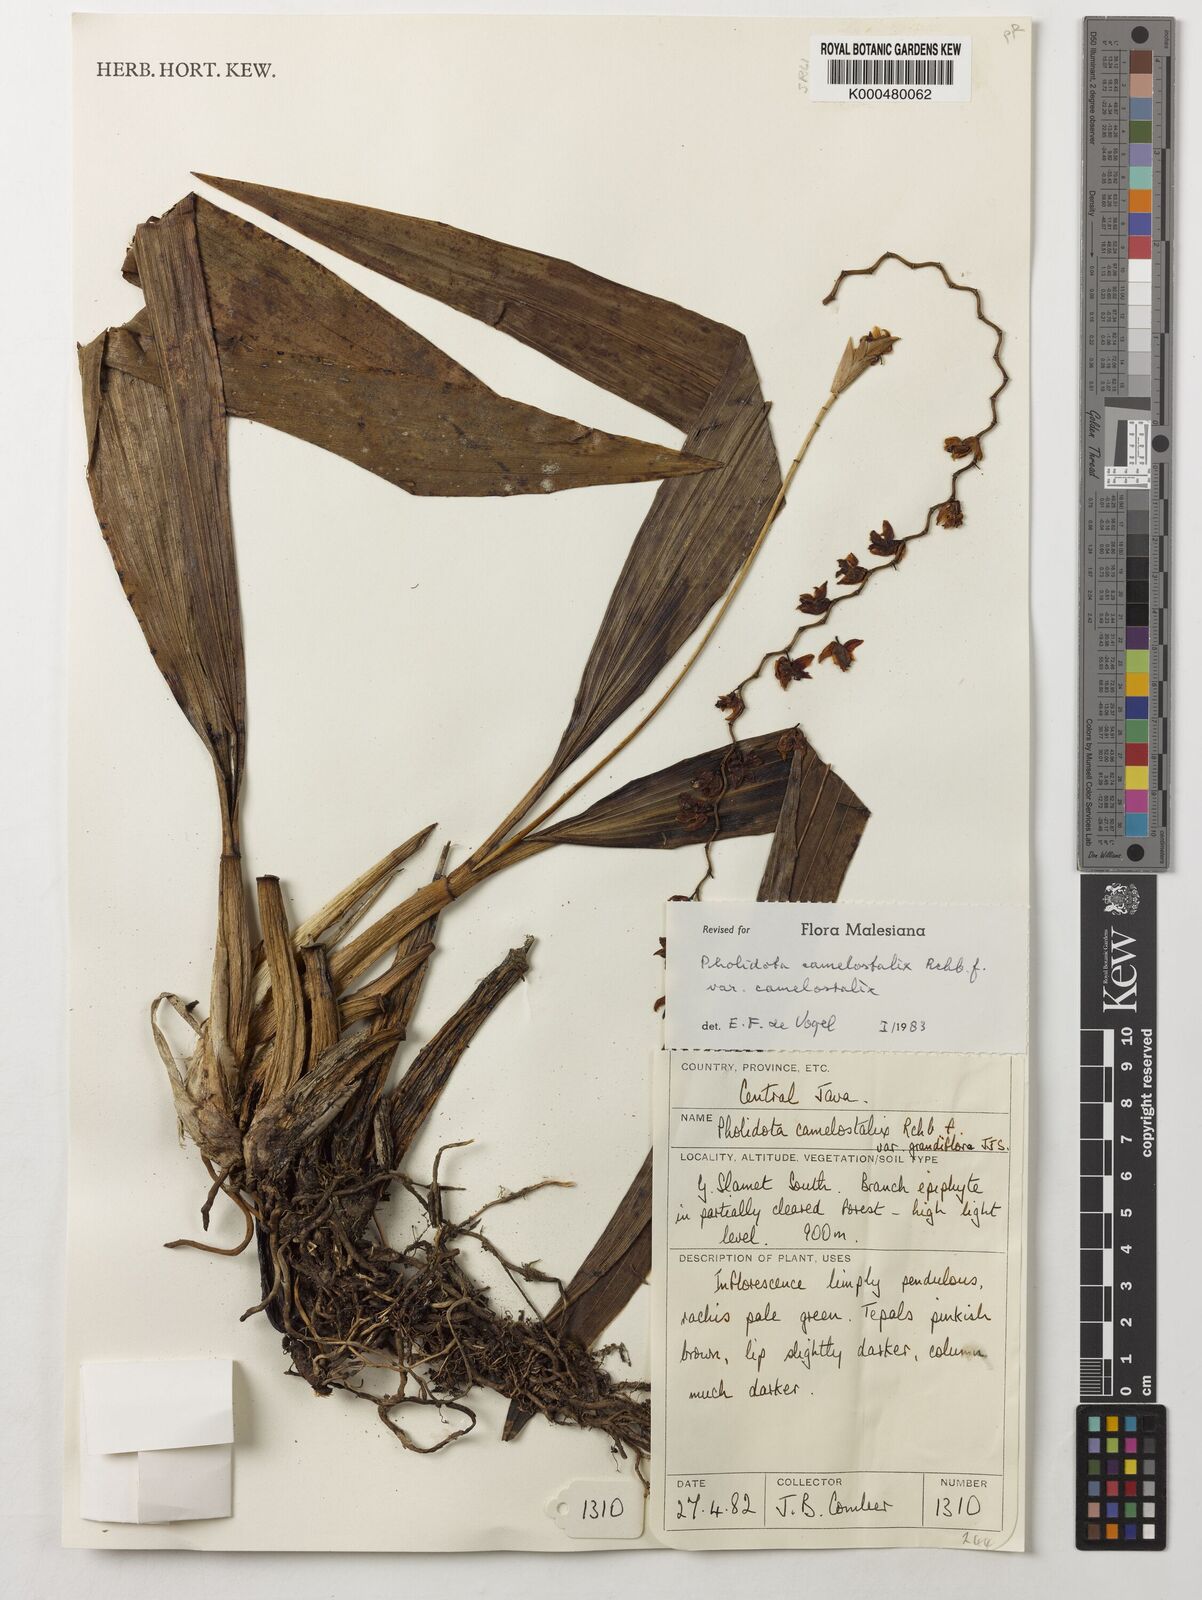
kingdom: Plantae
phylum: Tracheophyta
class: Liliopsida
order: Asparagales
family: Orchidaceae
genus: Coelogyne
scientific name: Coelogyne camelostalix
